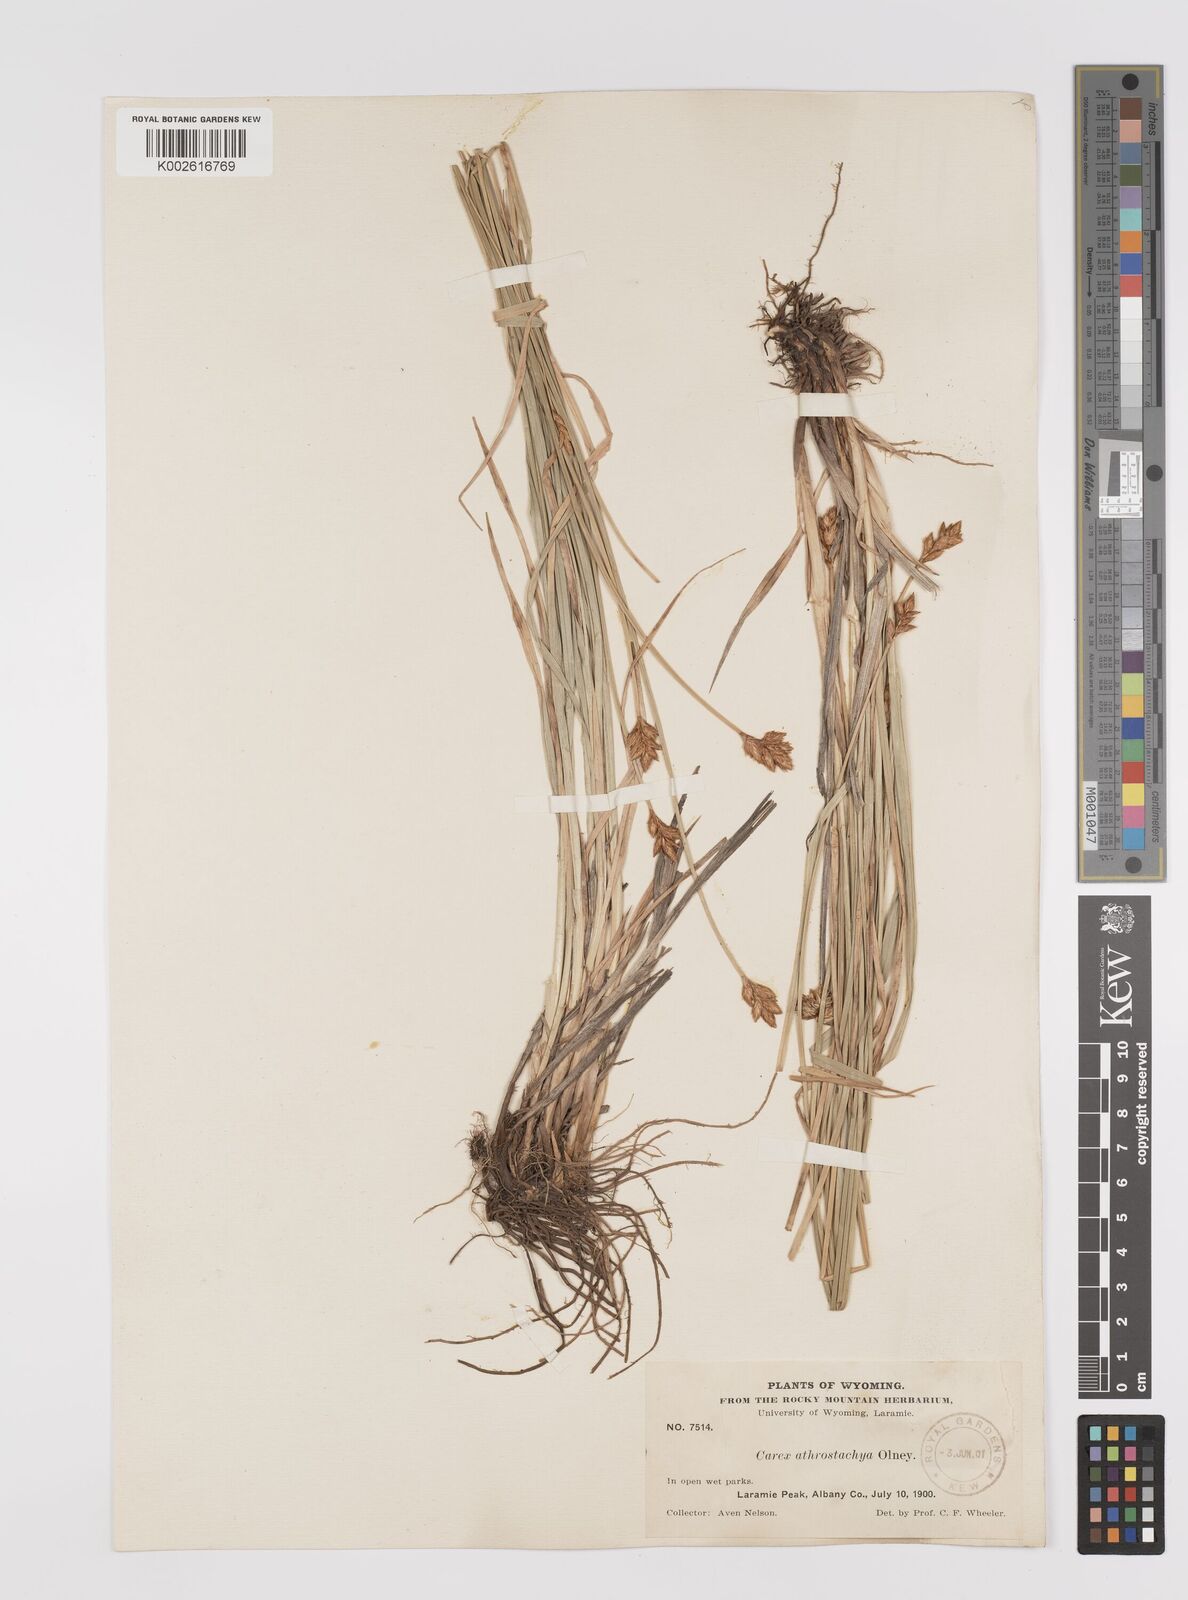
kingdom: Plantae
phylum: Tracheophyta
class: Liliopsida
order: Poales
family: Cyperaceae
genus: Carex
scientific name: Carex athrostachya
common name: Slenderbeak sedge
